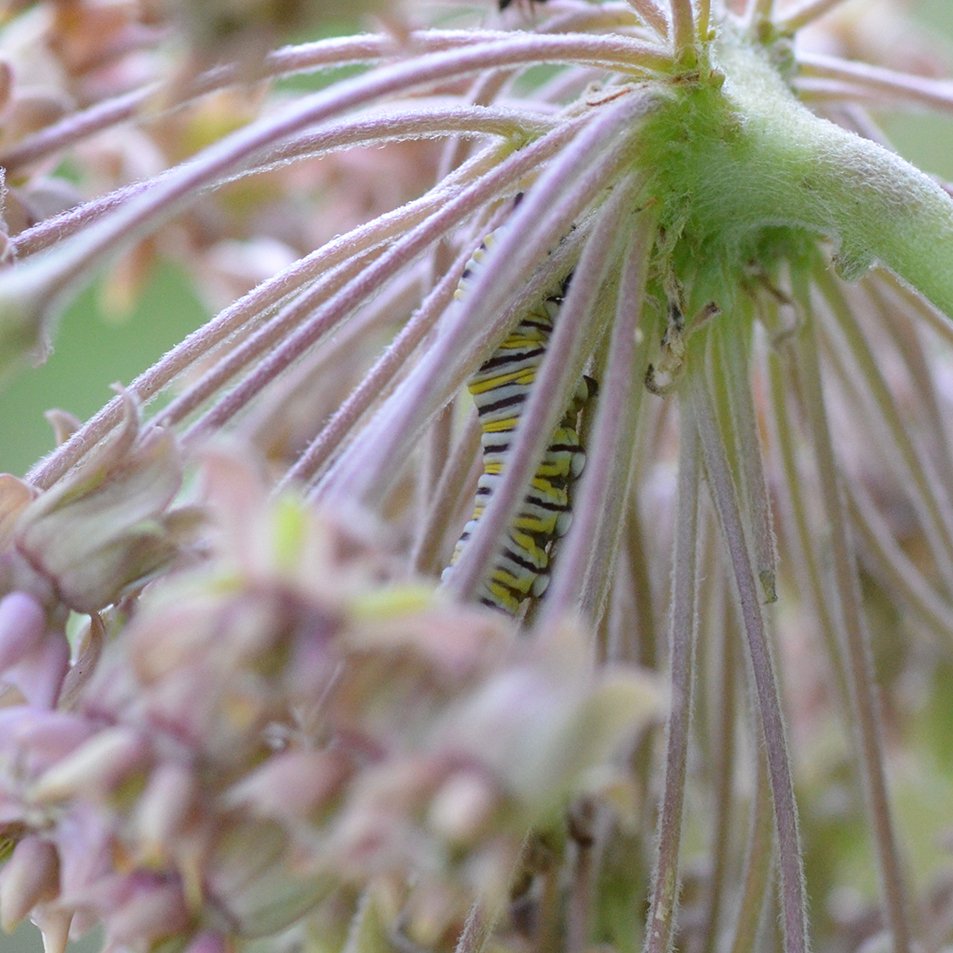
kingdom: Animalia
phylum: Arthropoda
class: Insecta
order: Lepidoptera
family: Nymphalidae
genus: Danaus
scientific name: Danaus plexippus
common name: Monarch
